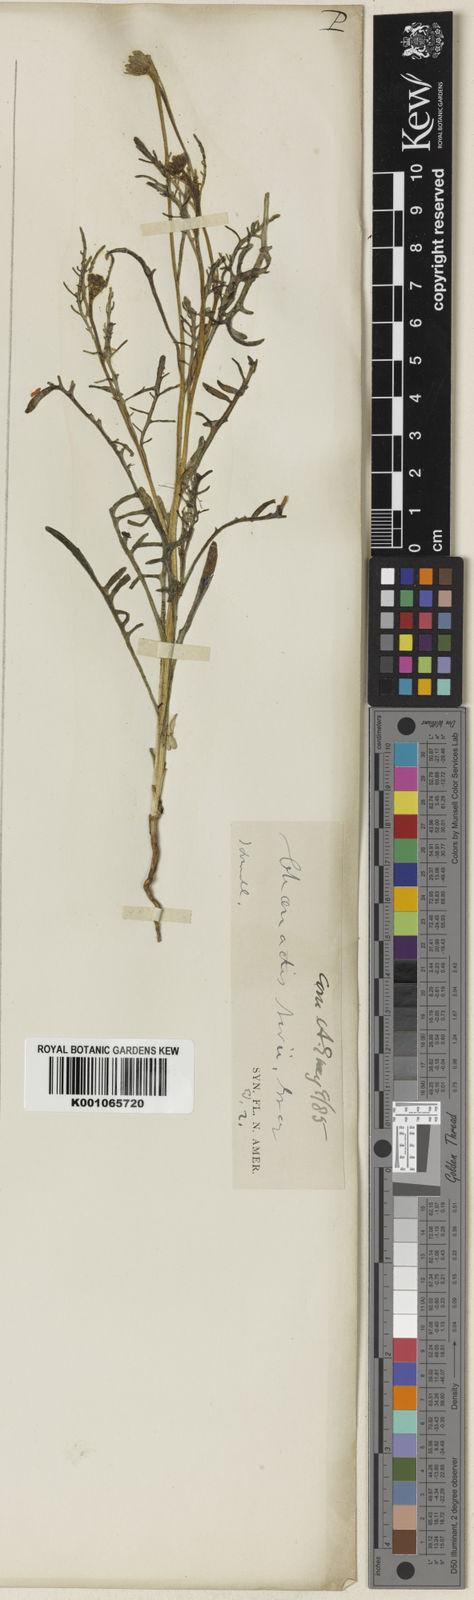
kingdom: Plantae
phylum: Tracheophyta
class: Magnoliopsida
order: Asterales
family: Asteraceae
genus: Chaenactis
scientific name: Chaenactis nevii
